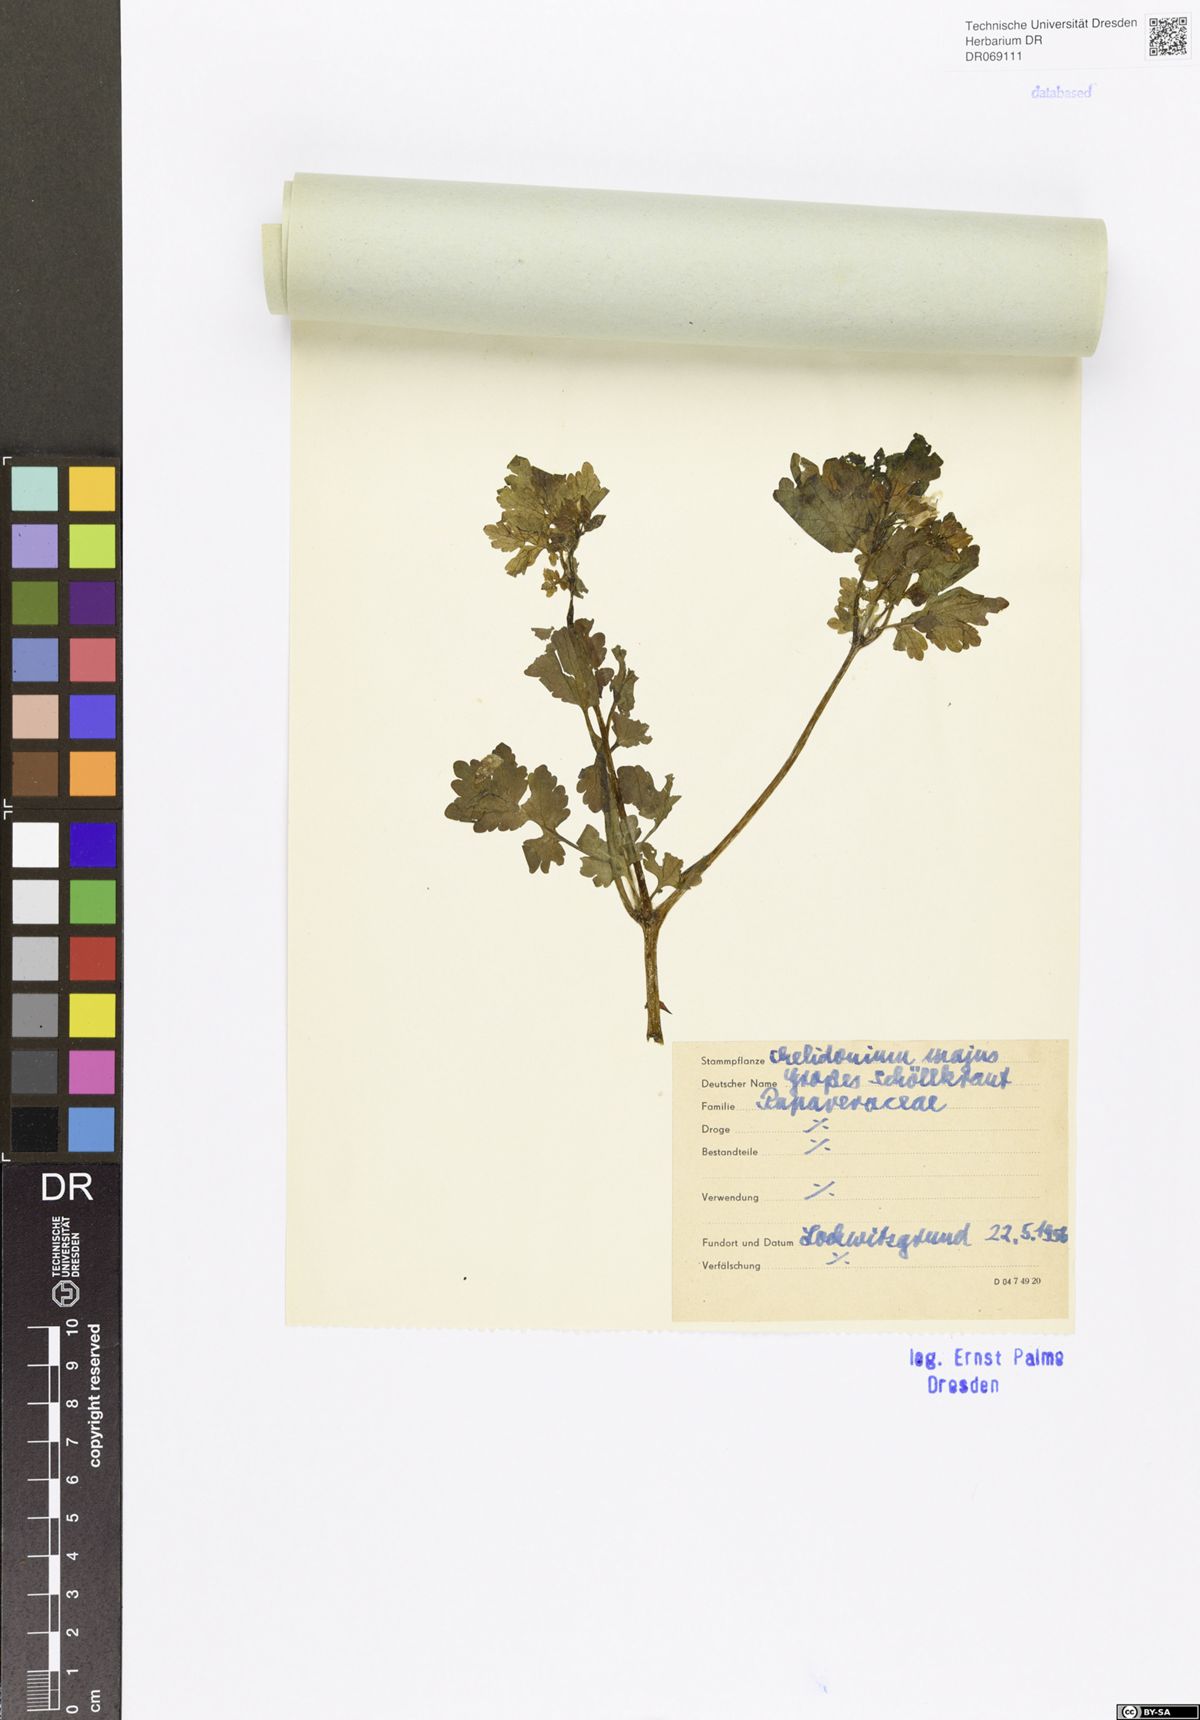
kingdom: Plantae
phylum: Tracheophyta
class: Magnoliopsida
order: Ranunculales
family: Papaveraceae
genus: Chelidonium
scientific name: Chelidonium majus
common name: Greater celandine
